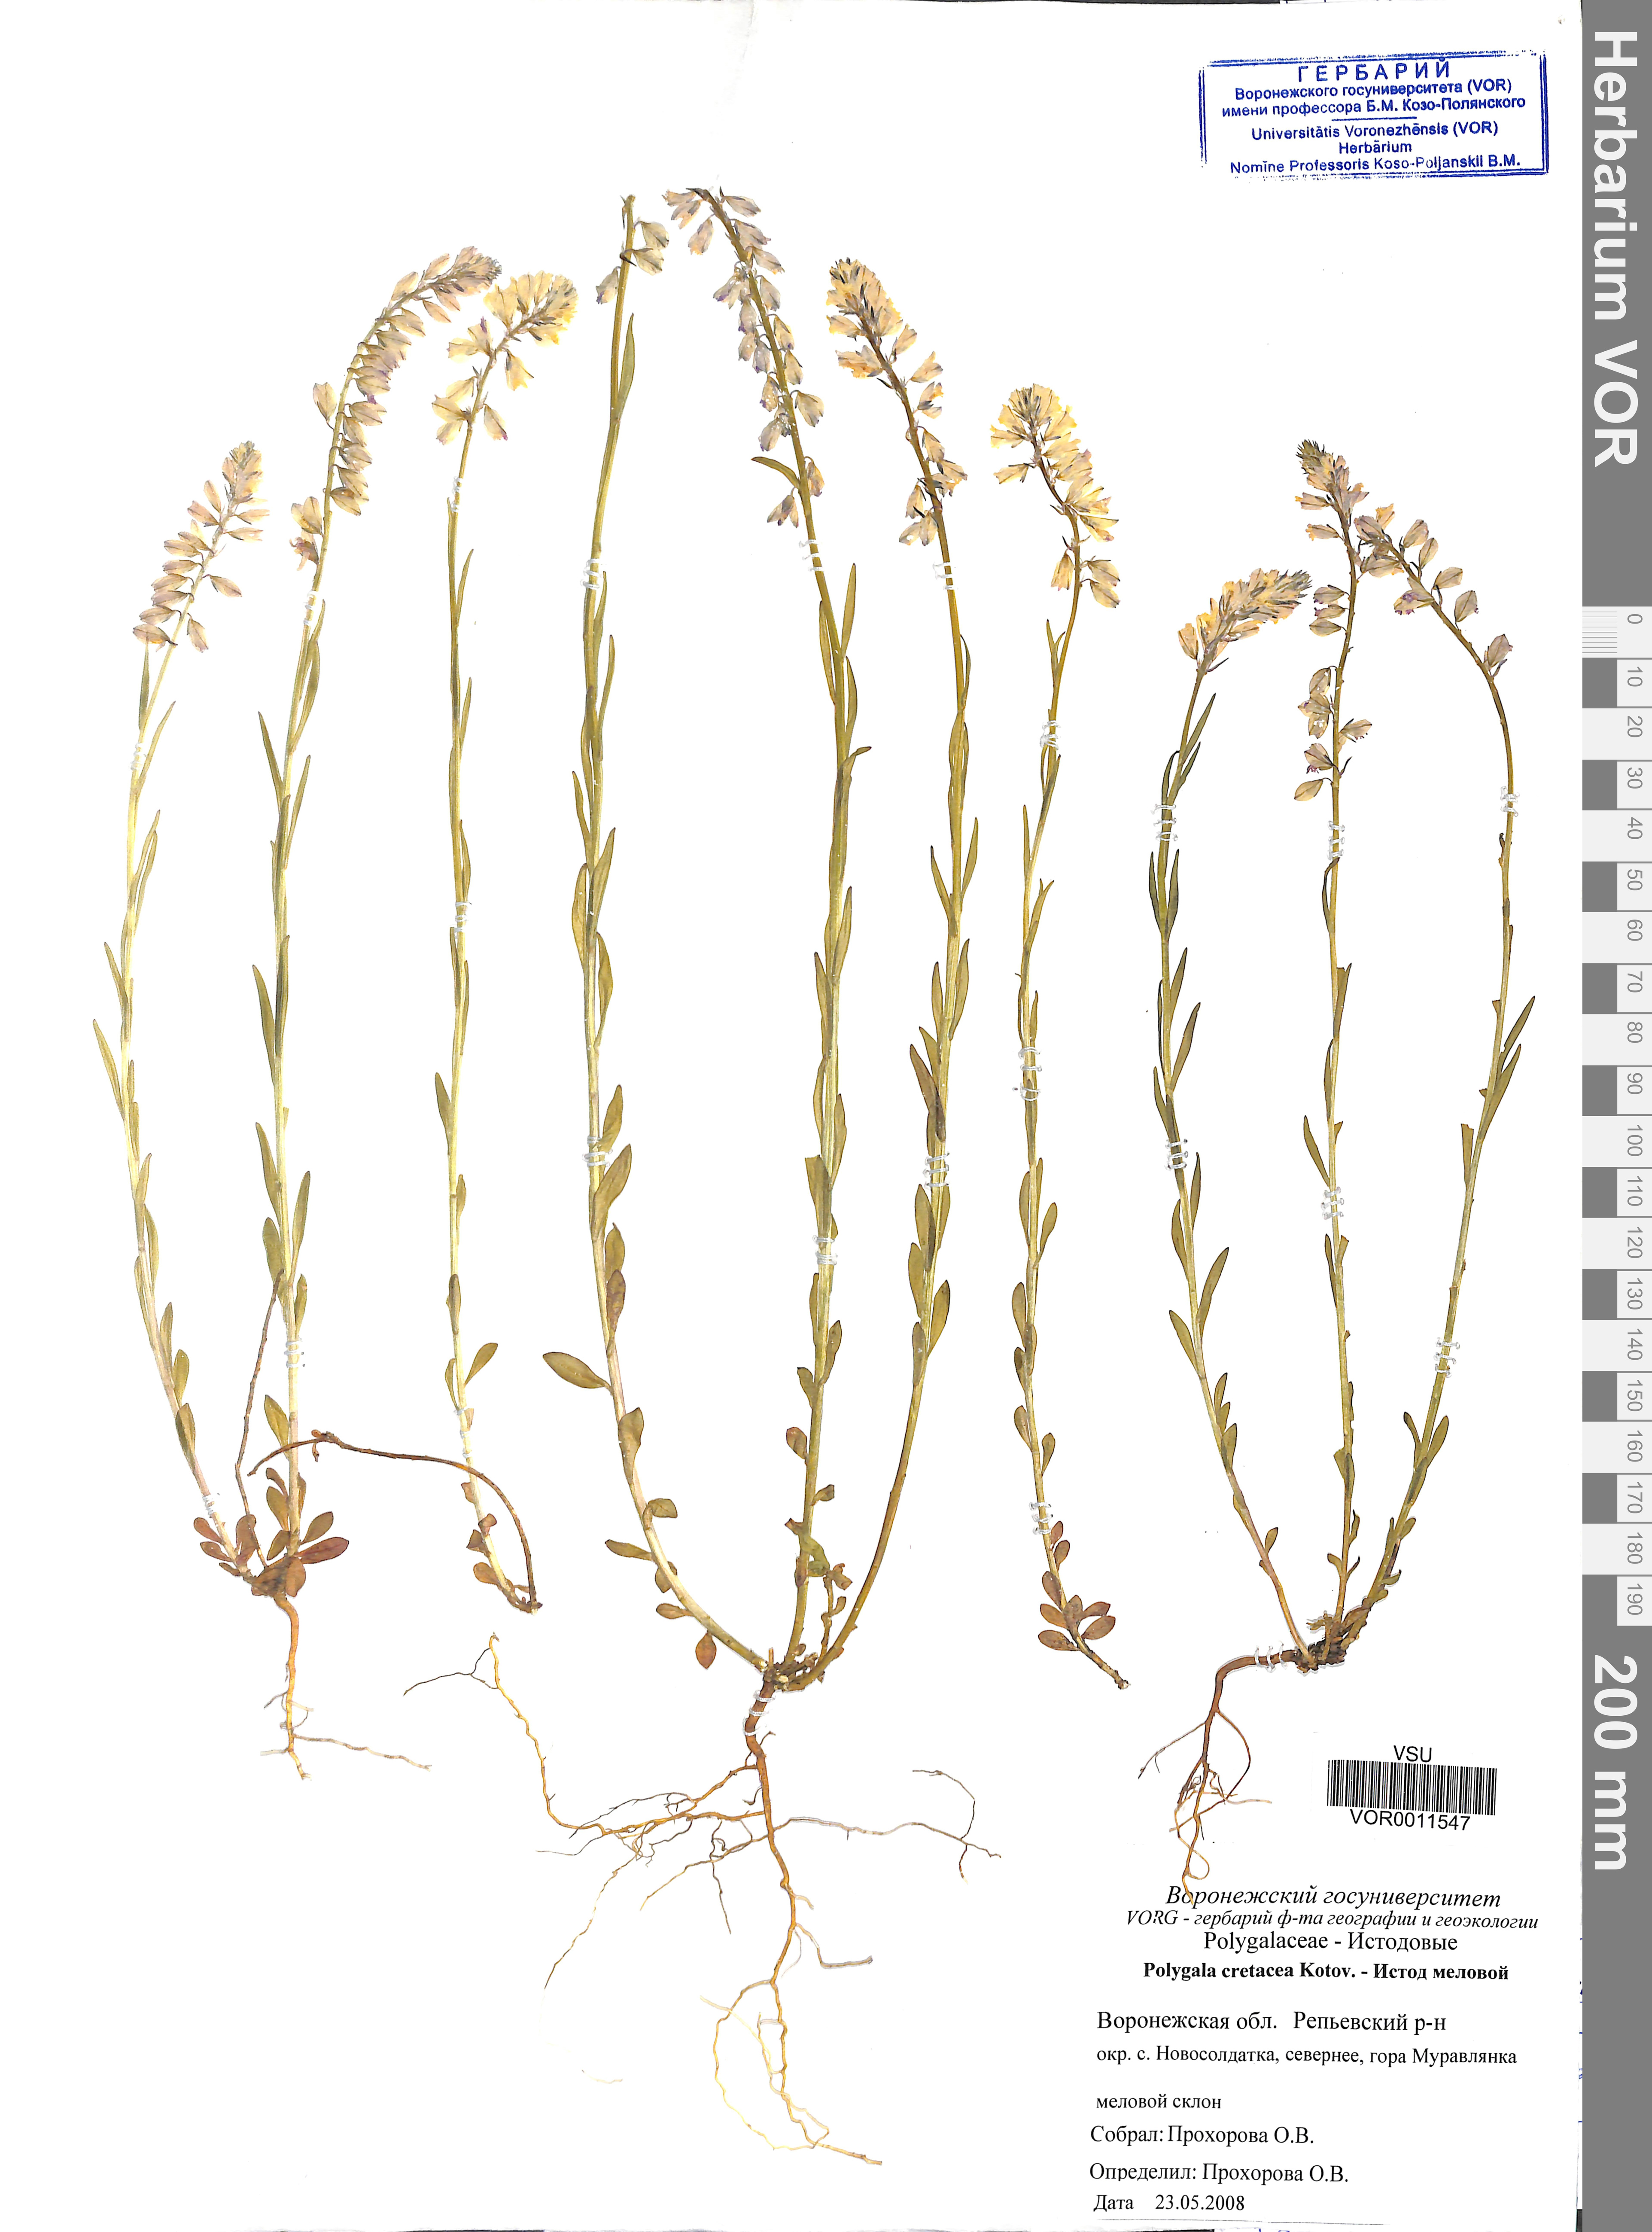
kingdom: Plantae
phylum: Tracheophyta
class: Magnoliopsida
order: Fabales
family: Polygalaceae
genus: Polygala
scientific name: Polygala comosa
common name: Tufted milkwort
